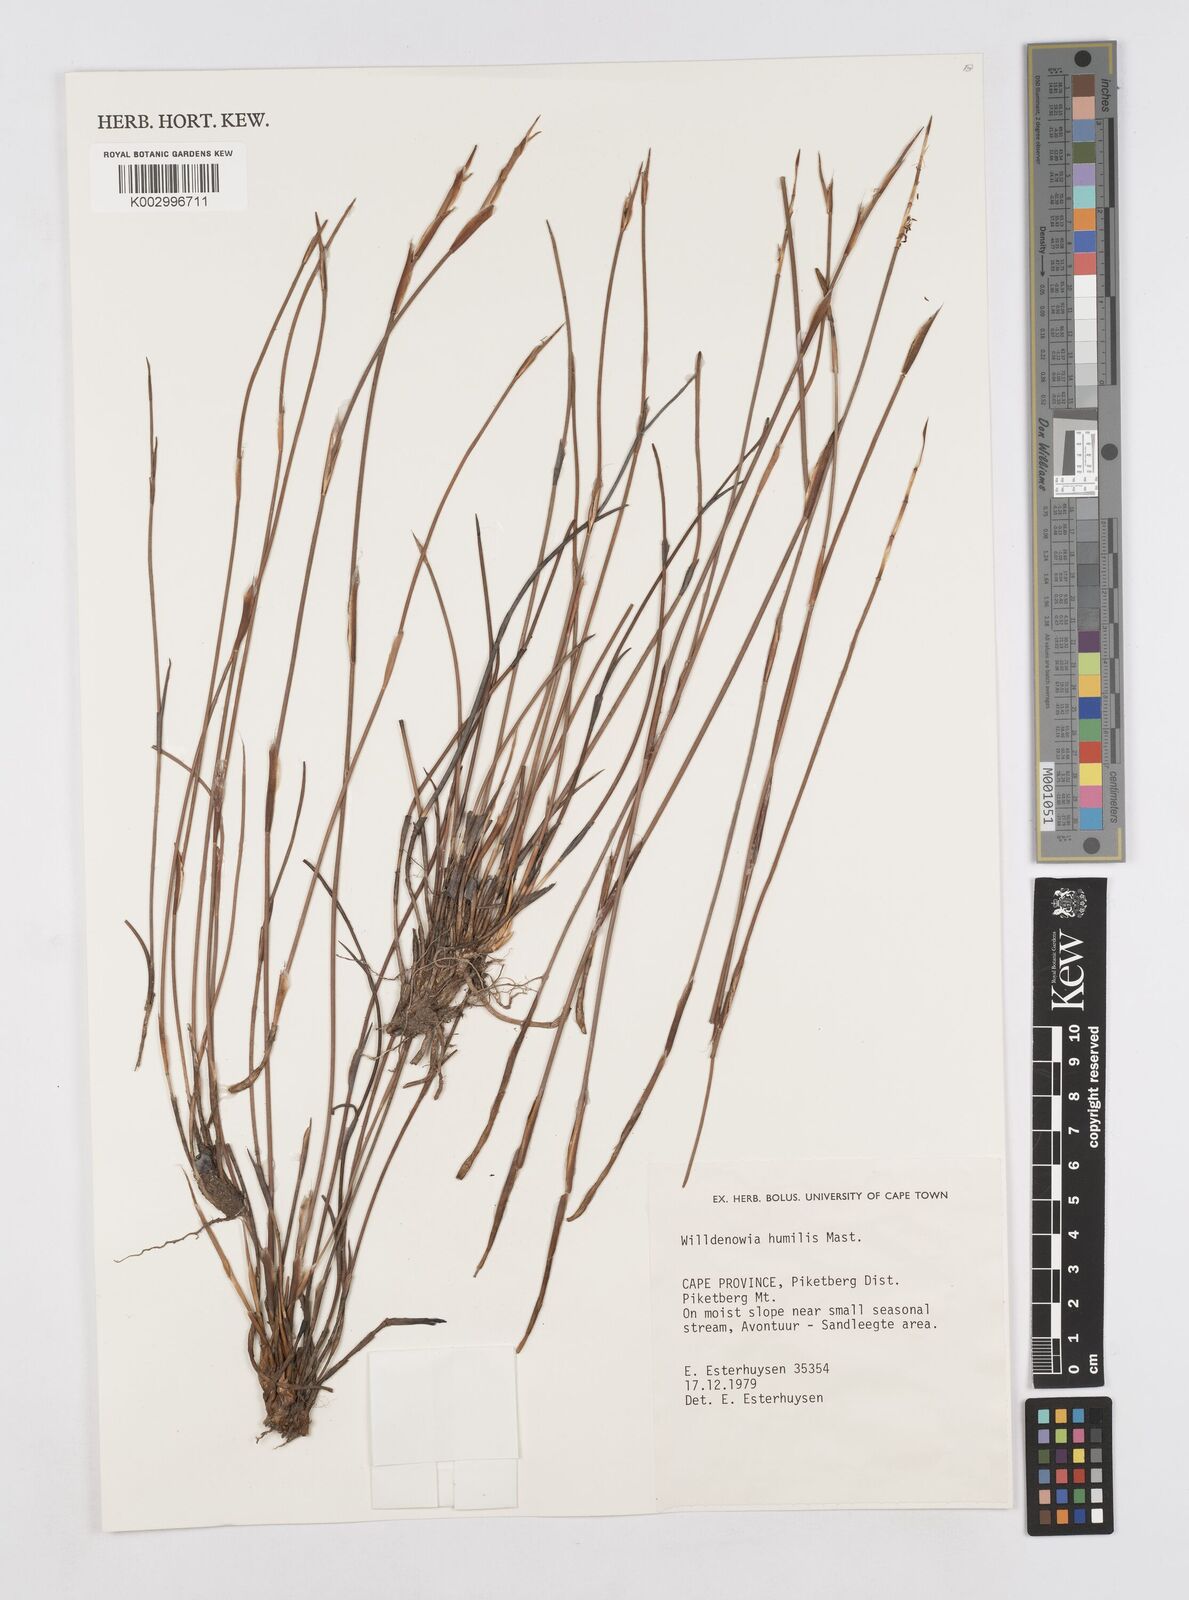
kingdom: Plantae
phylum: Tracheophyta
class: Liliopsida
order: Poales
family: Restionaceae
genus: Willdenowia
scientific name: Willdenowia humilis
